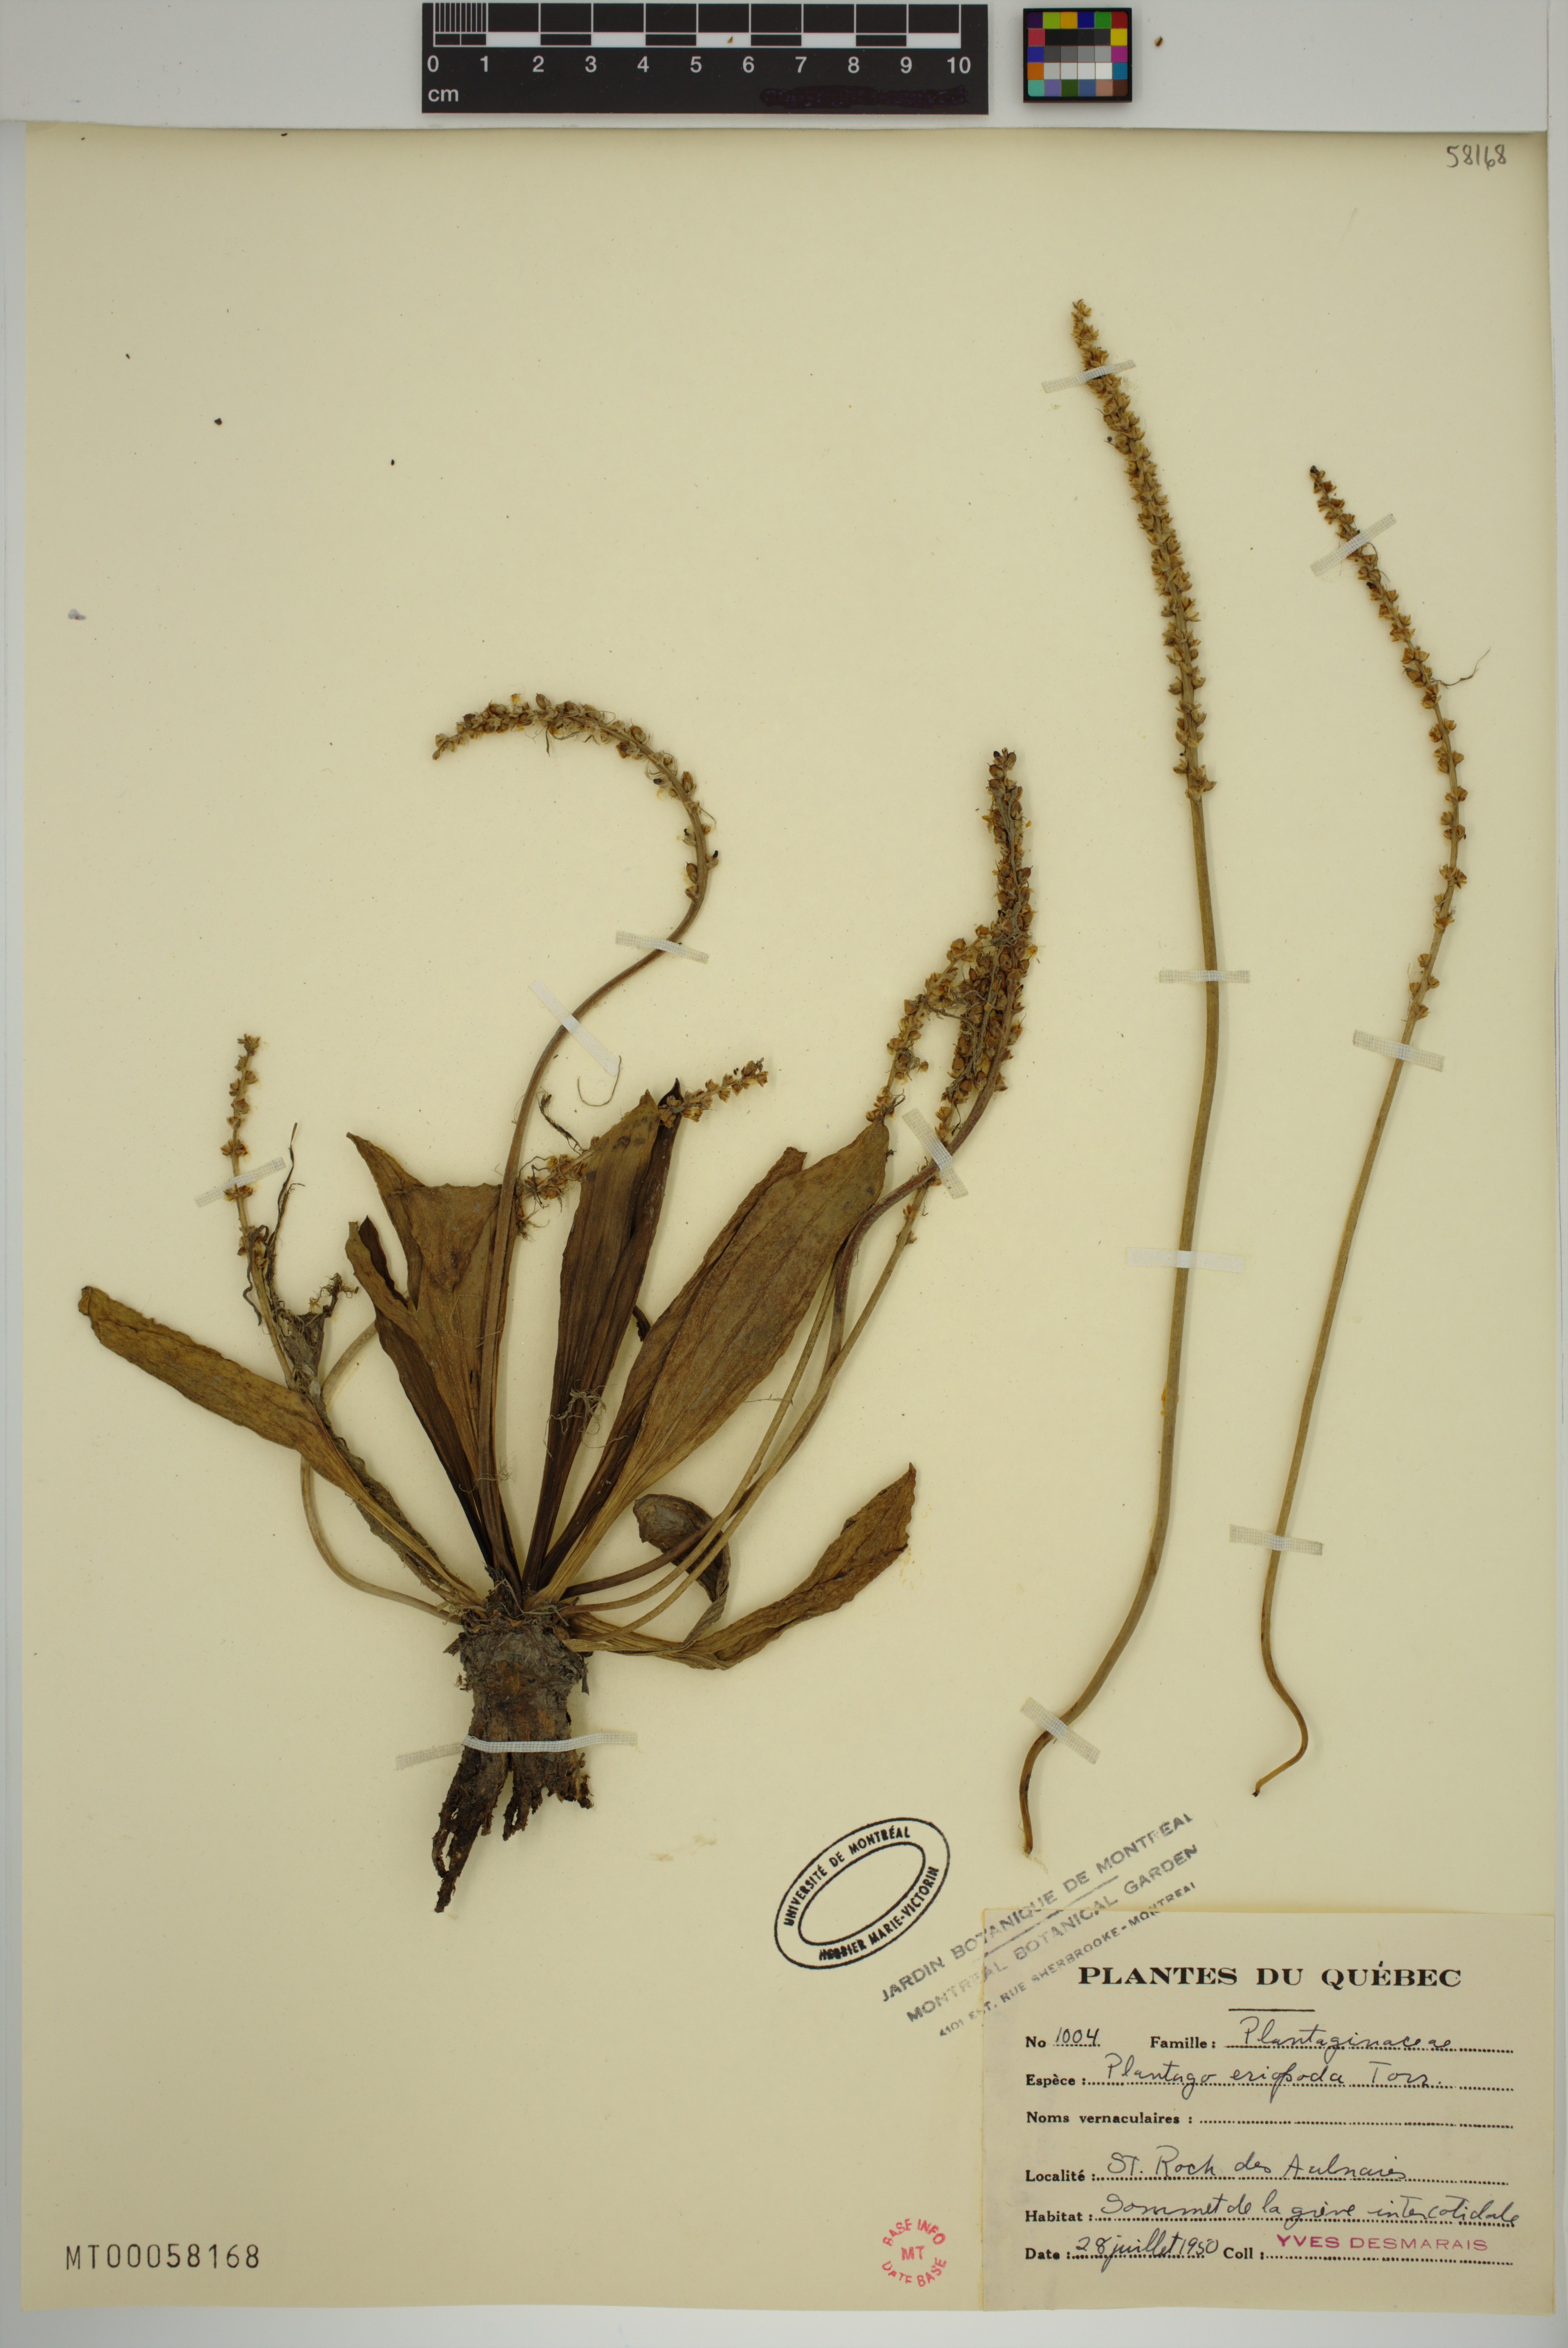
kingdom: Plantae
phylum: Tracheophyta
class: Magnoliopsida
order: Lamiales
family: Plantaginaceae
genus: Plantago
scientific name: Plantago eriopoda
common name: Alkali plantain
